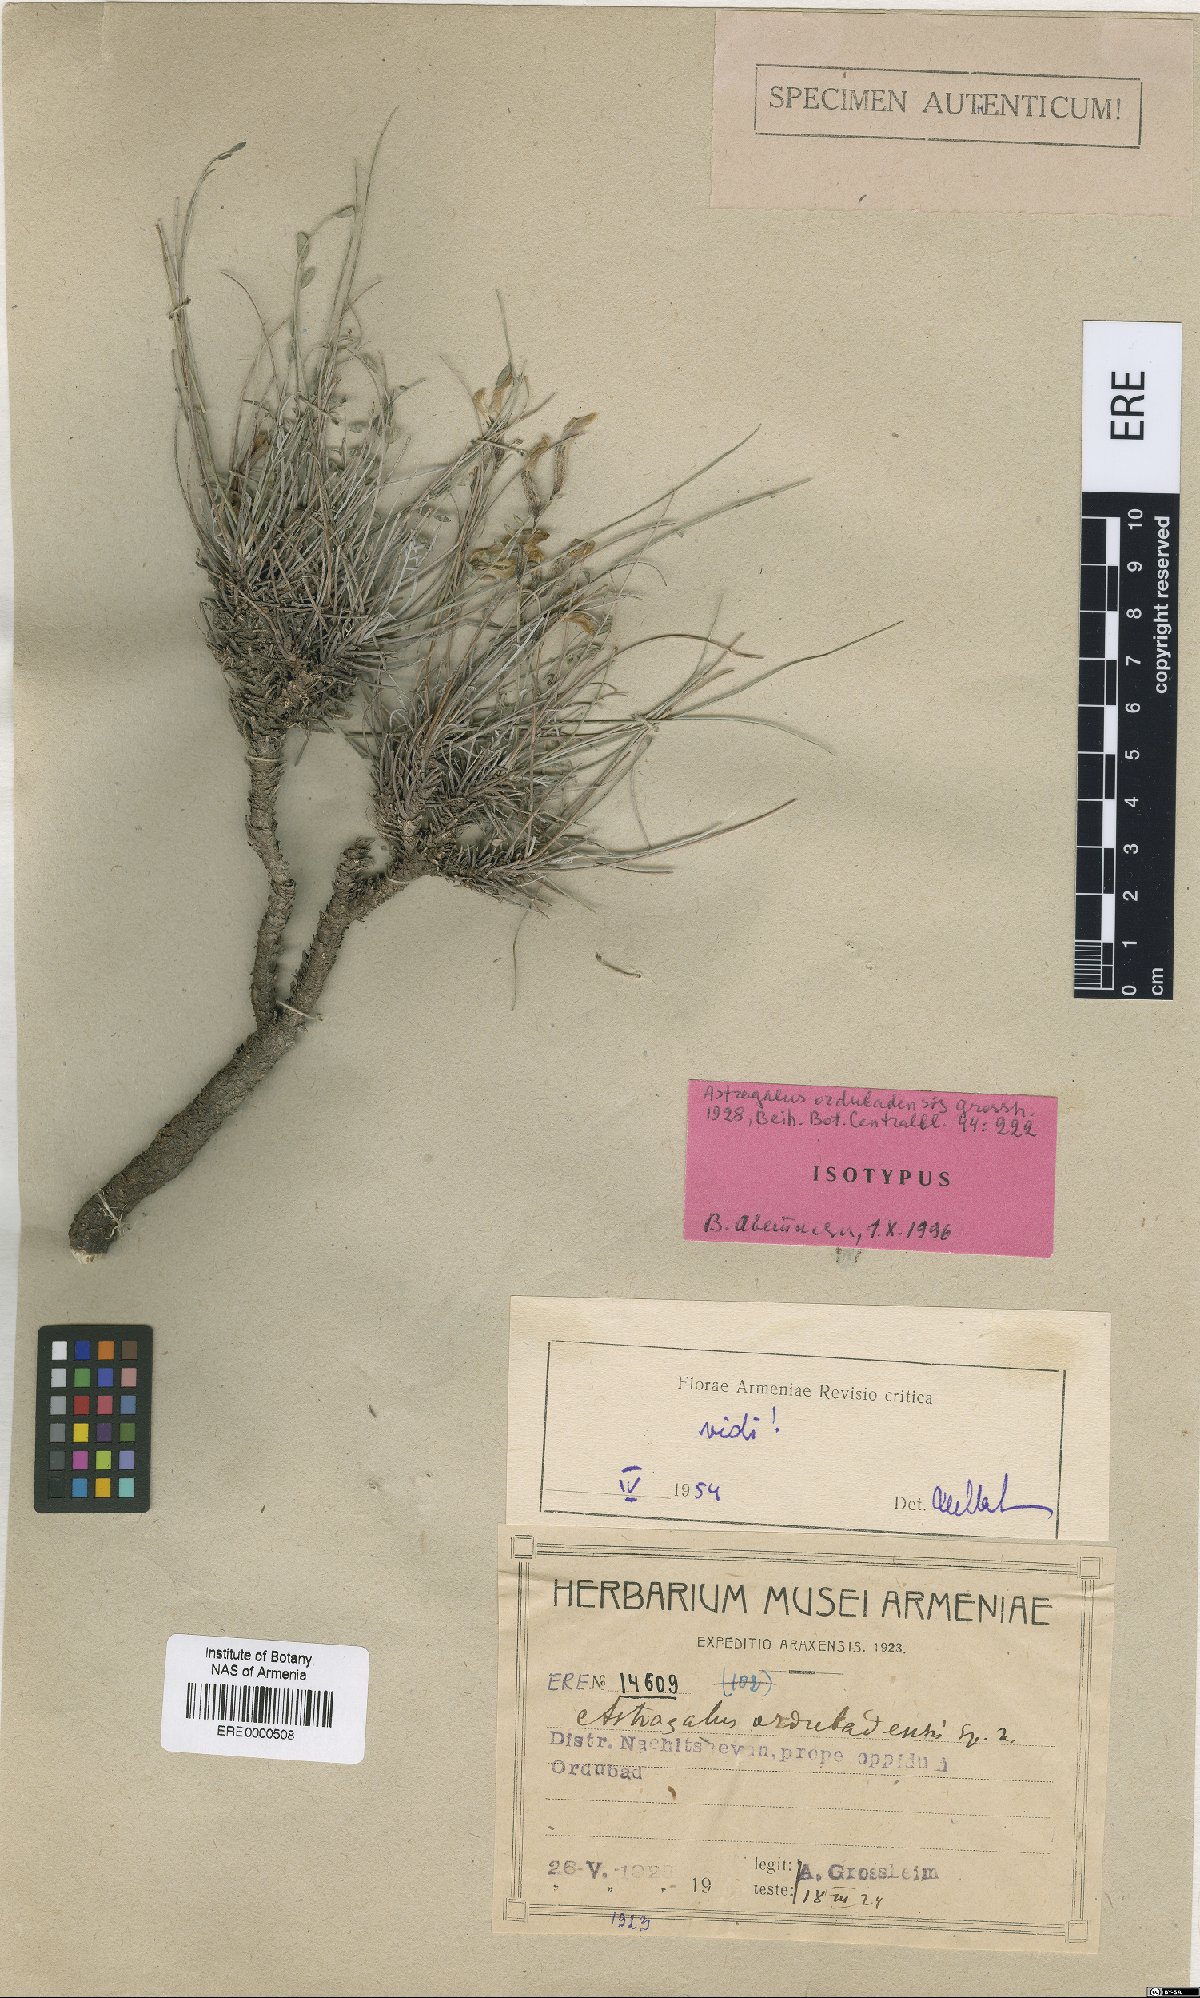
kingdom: Plantae
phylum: Tracheophyta
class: Magnoliopsida
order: Fabales
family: Fabaceae
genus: Astragalus
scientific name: Astragalus ordubadensis
